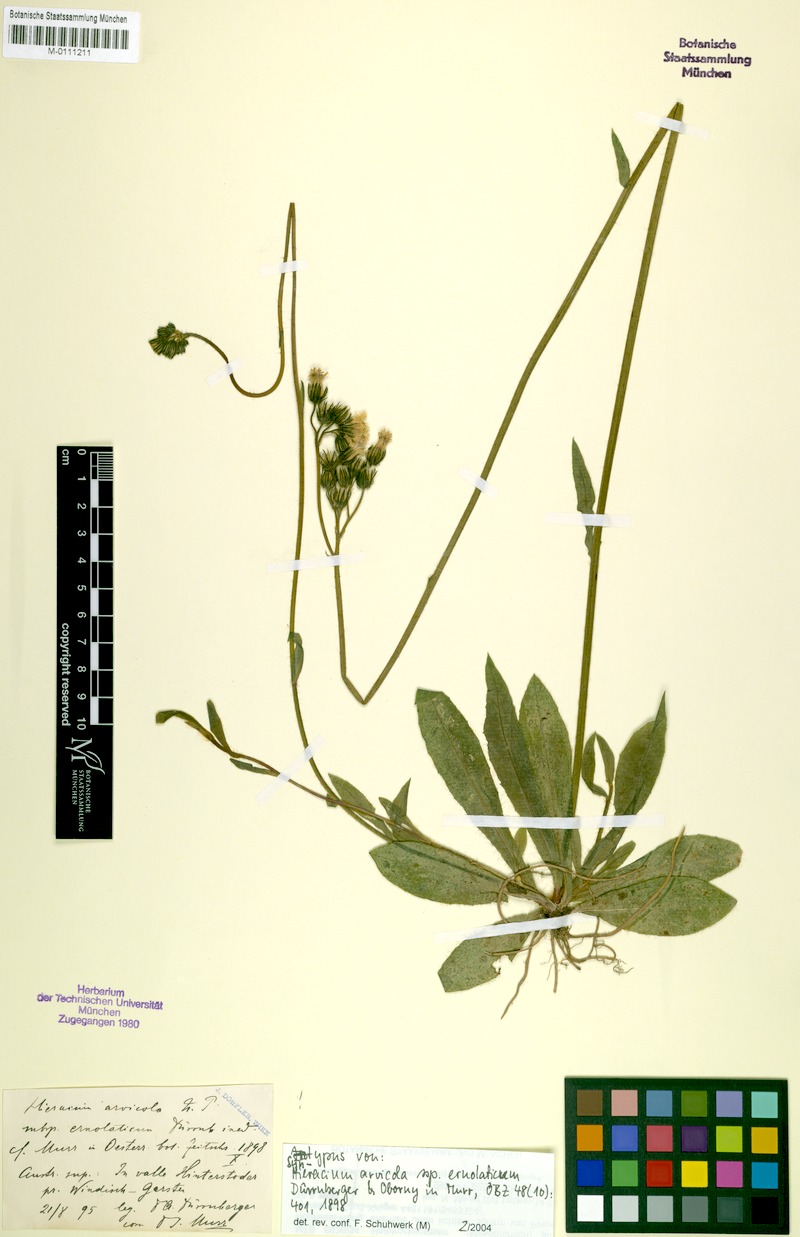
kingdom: Plantae
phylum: Tracheophyta
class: Magnoliopsida
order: Asterales
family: Asteraceae
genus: Pilosella
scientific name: Pilosella erythrochrista
